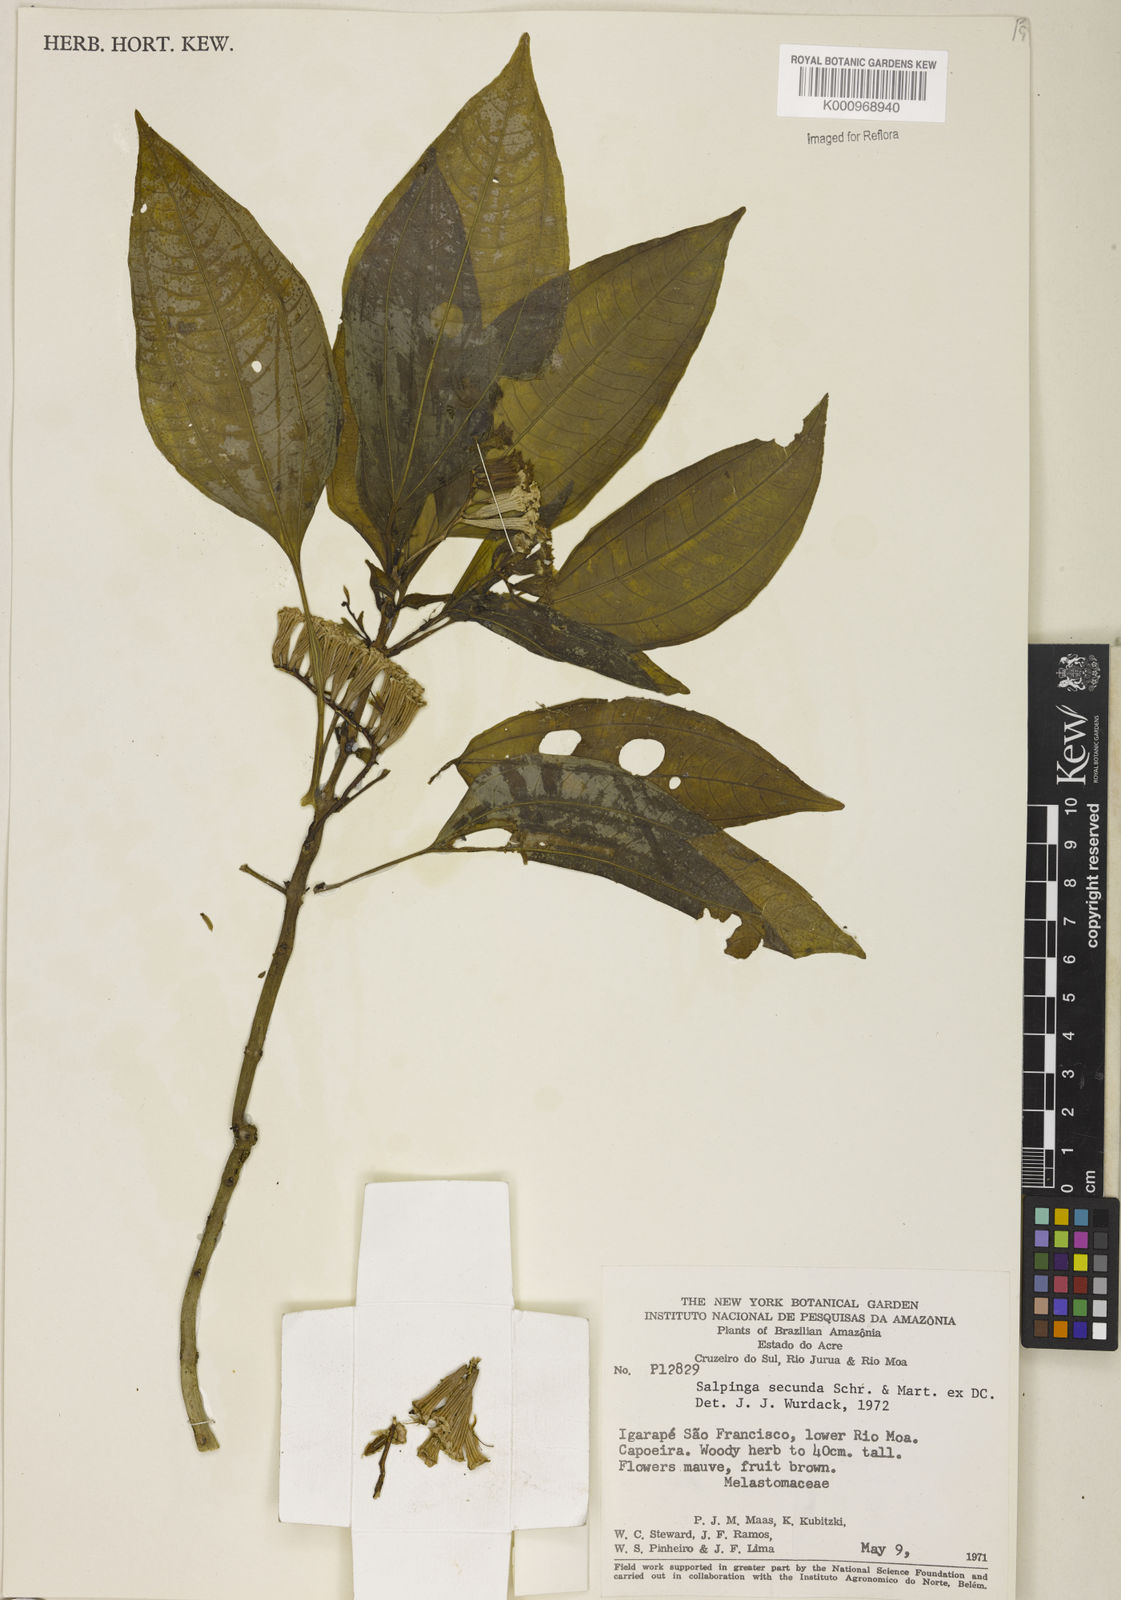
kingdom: Plantae
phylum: Tracheophyta
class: Magnoliopsida
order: Myrtales
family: Melastomataceae
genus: Salpinga
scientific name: Salpinga secunda
